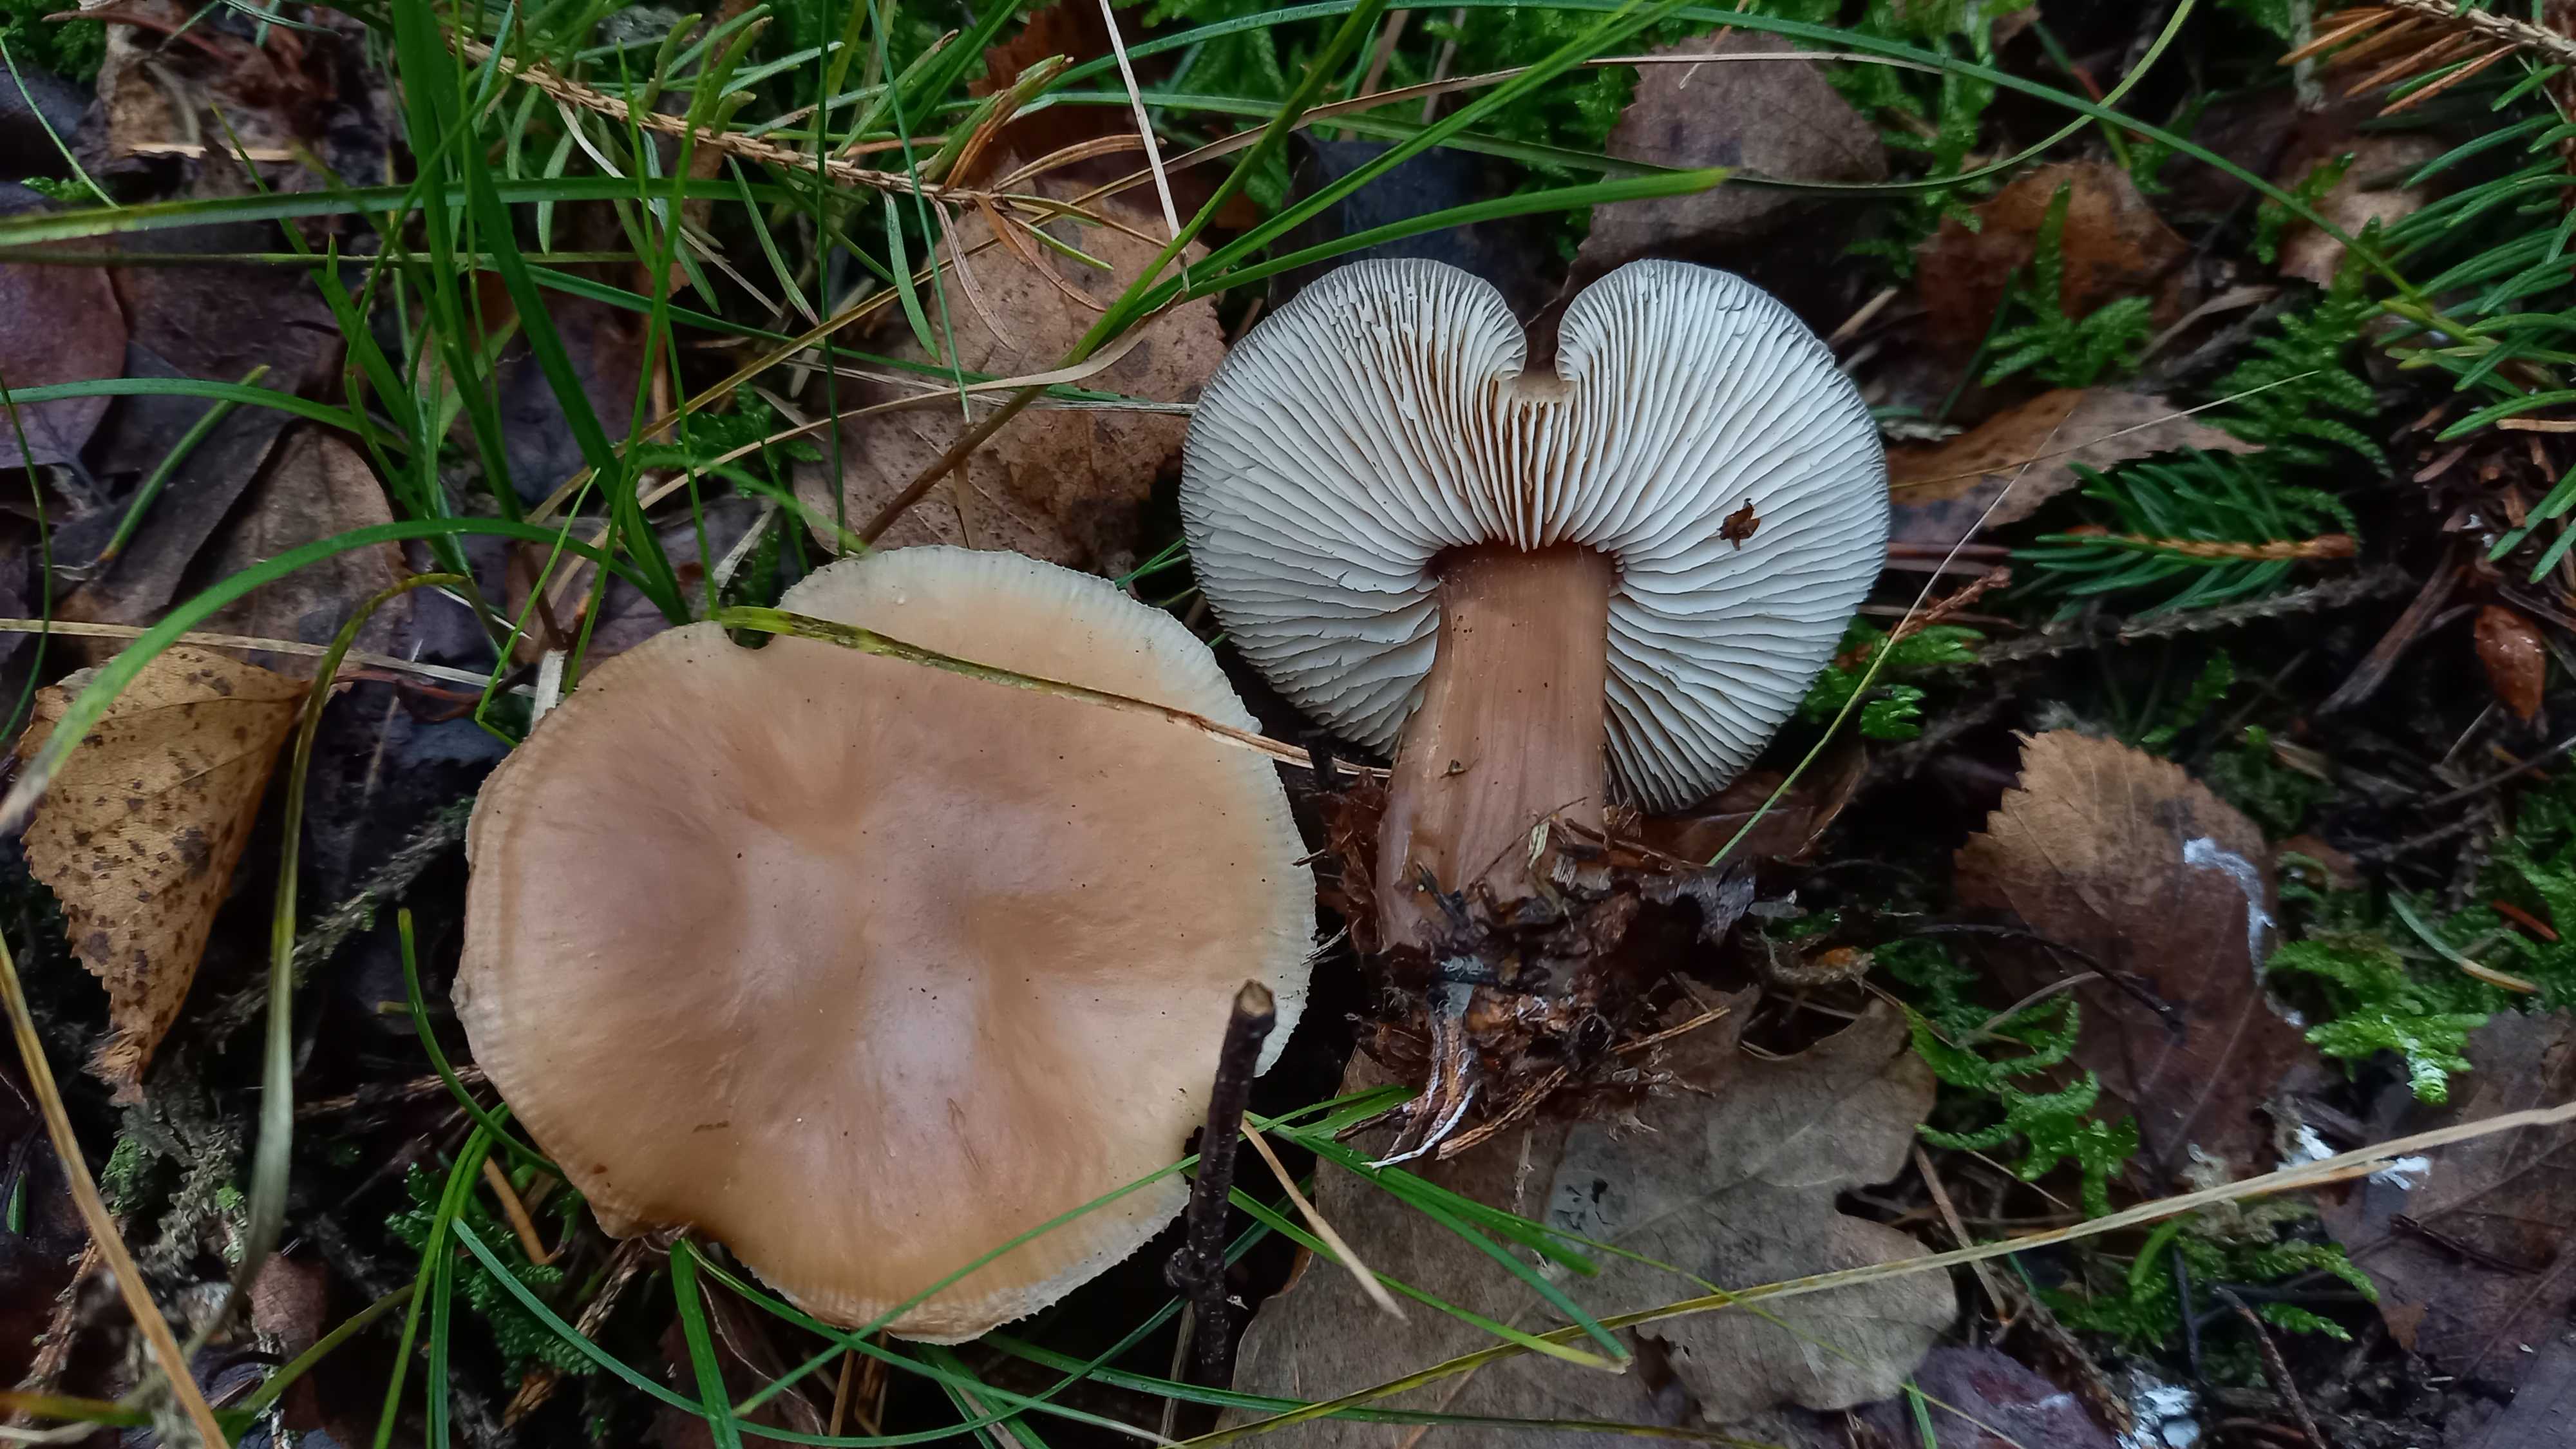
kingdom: Fungi
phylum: Basidiomycota
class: Agaricomycetes
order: Agaricales
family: Omphalotaceae
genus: Rhodocollybia
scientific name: Rhodocollybia
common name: fladhat
